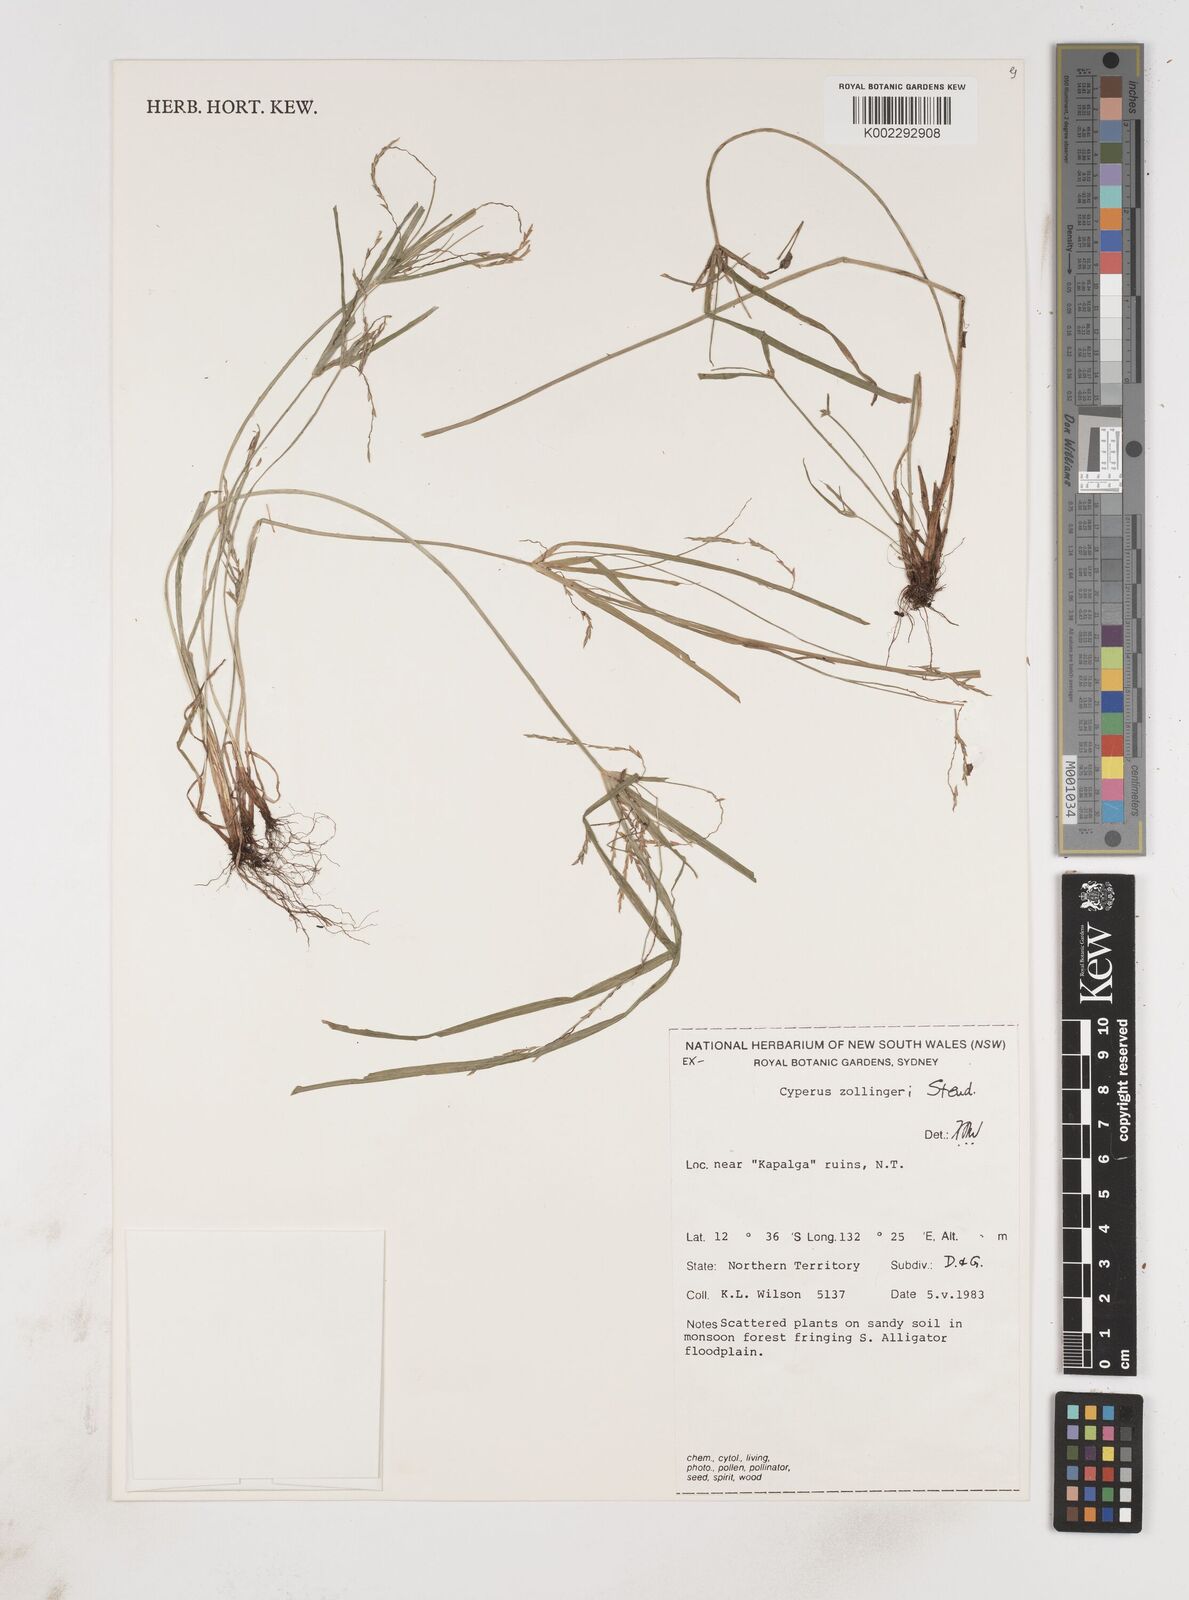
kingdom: Plantae
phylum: Tracheophyta
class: Liliopsida
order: Poales
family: Cyperaceae
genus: Cyperus
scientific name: Cyperus zollingeri
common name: Roadside flatsedge
